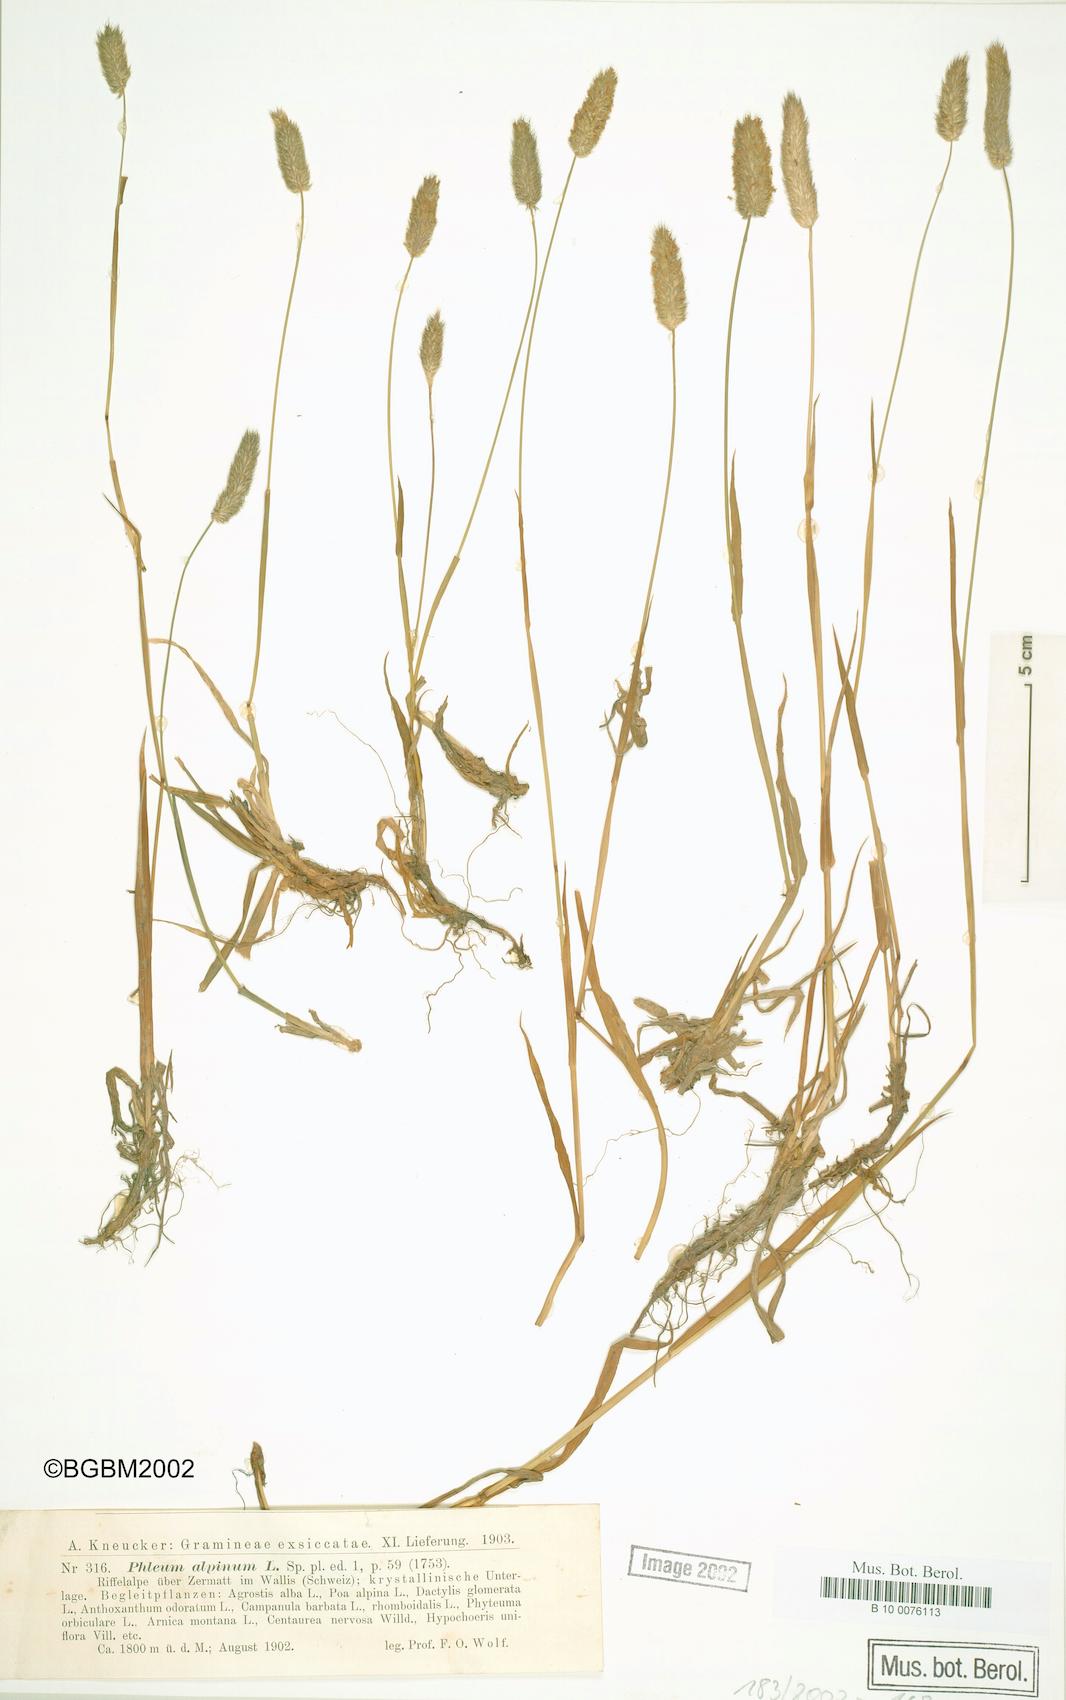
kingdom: Plantae
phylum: Tracheophyta
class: Liliopsida
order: Poales
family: Poaceae
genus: Phleum
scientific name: Phleum alpinum
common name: Alpine cat's-tail
